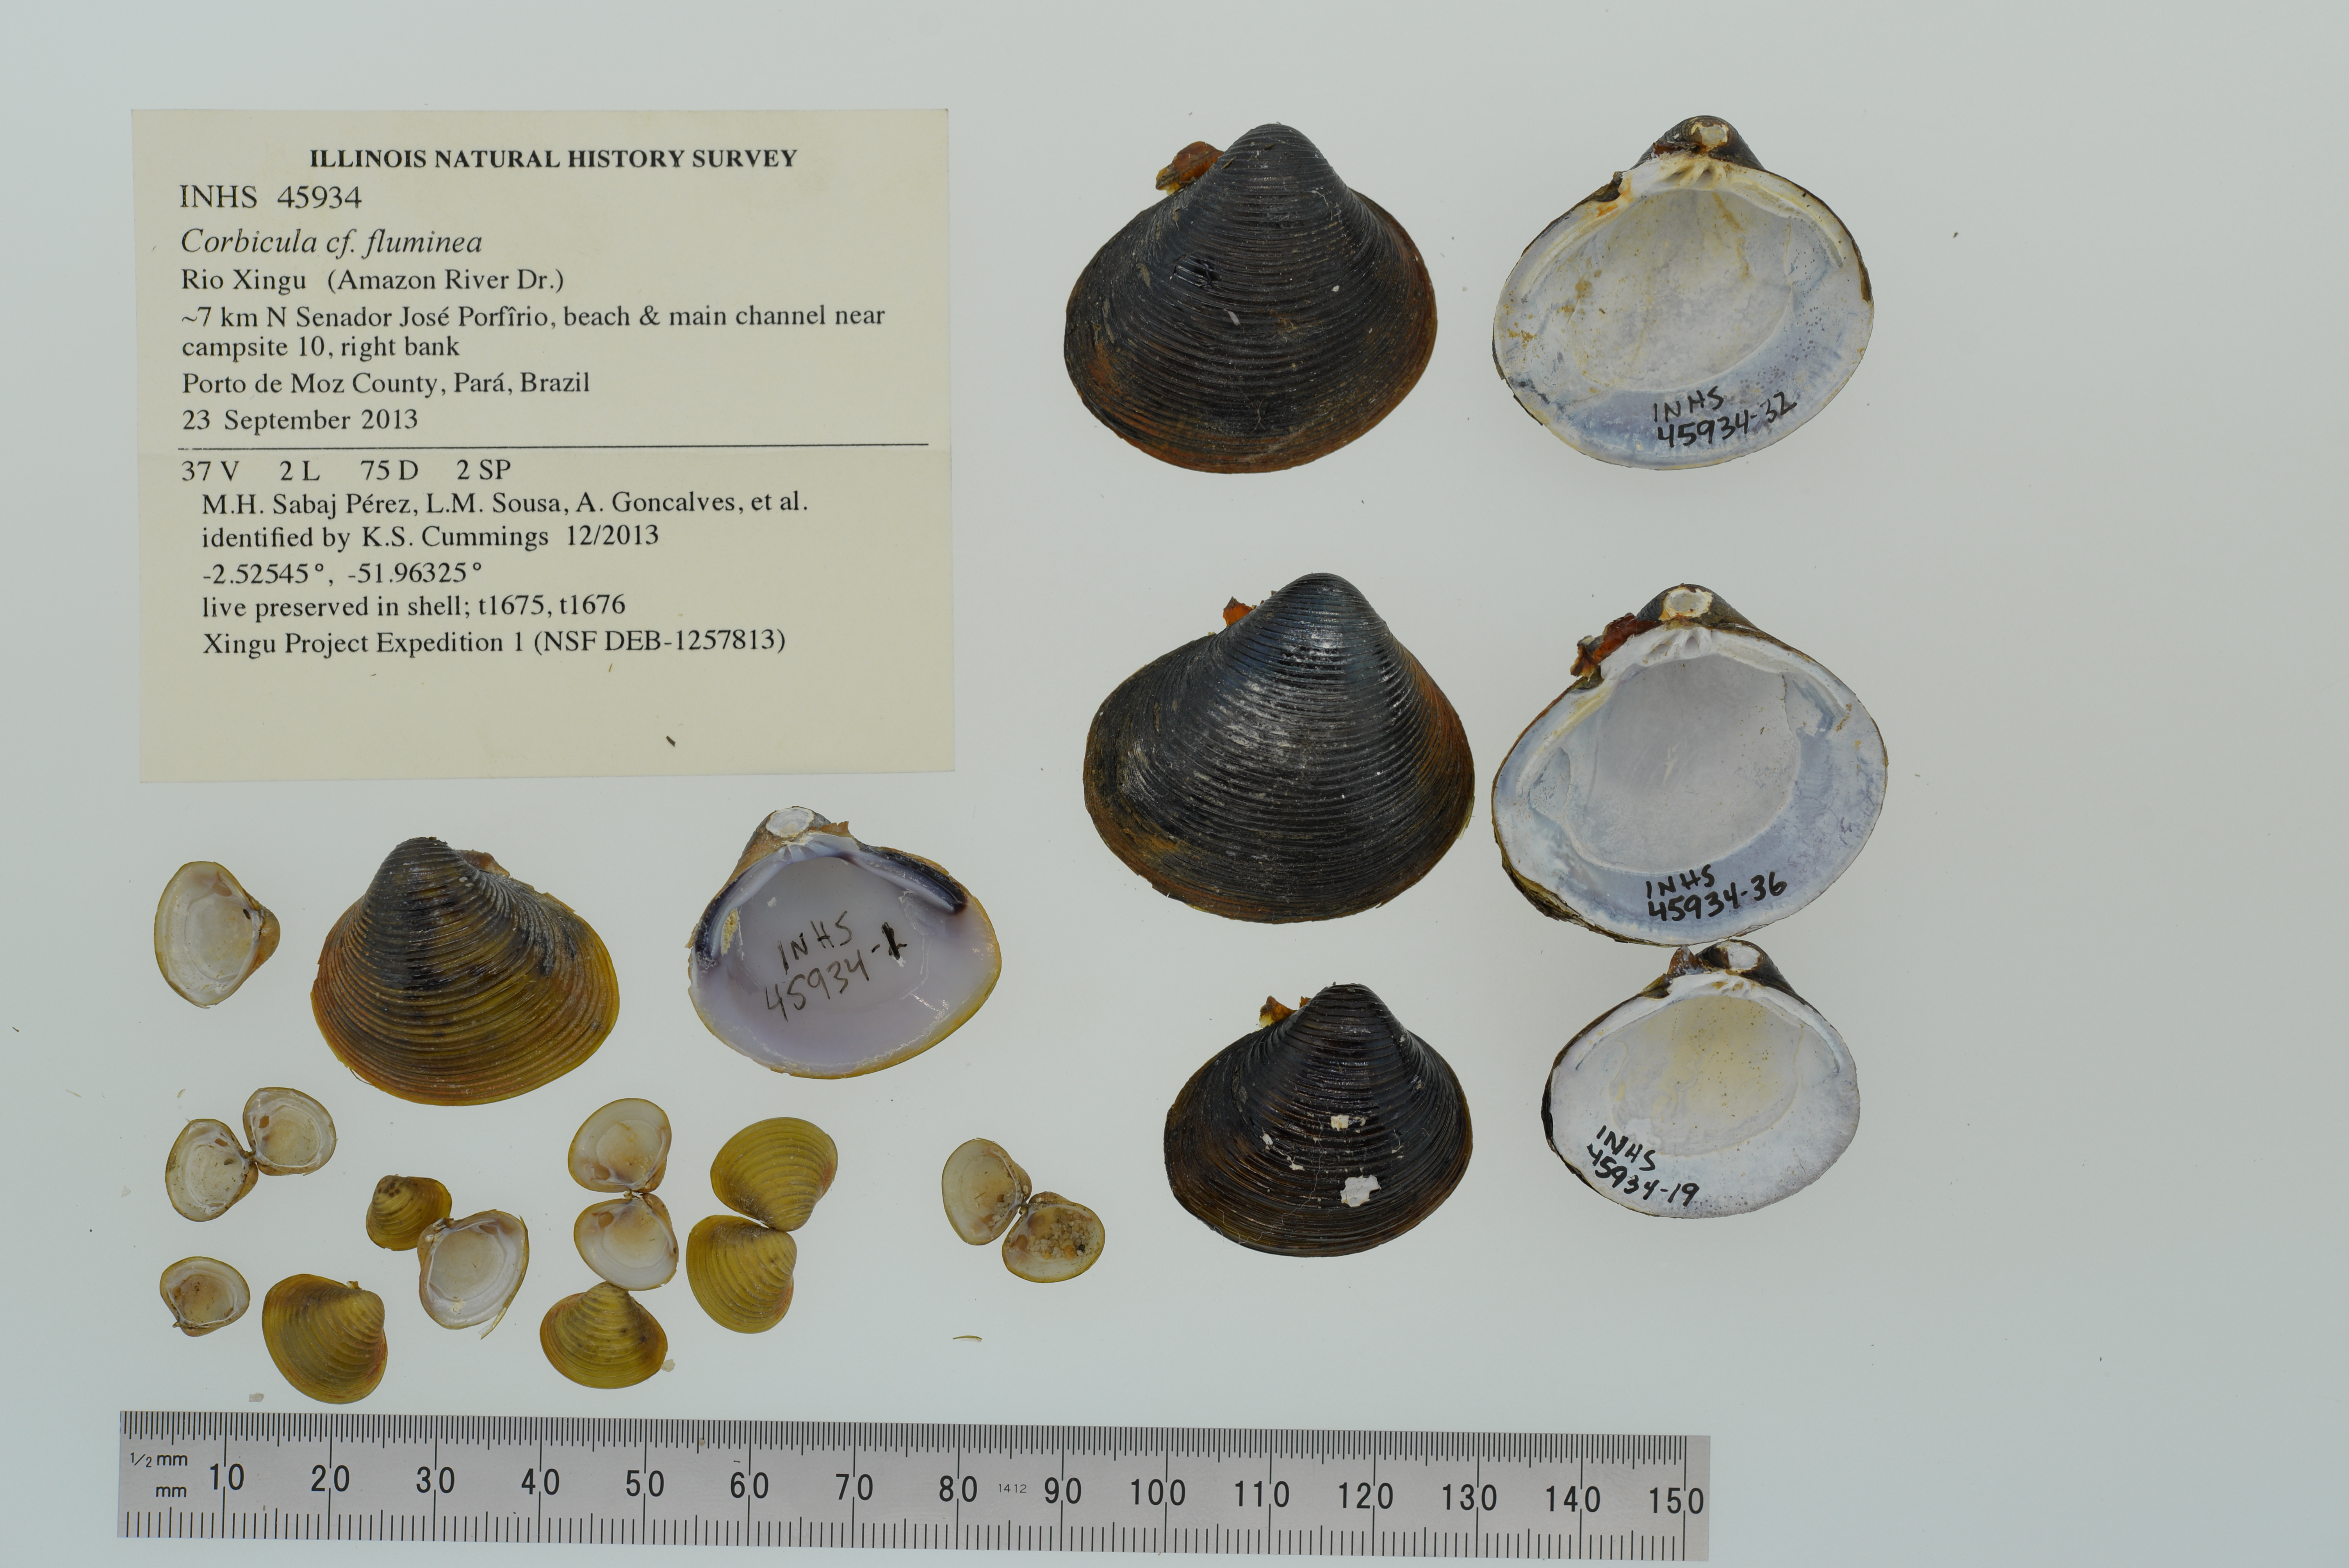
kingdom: Animalia
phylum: Mollusca
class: Bivalvia
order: Venerida
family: Cyrenidae
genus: Corbicula
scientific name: Corbicula fluminea
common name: Asian clam
